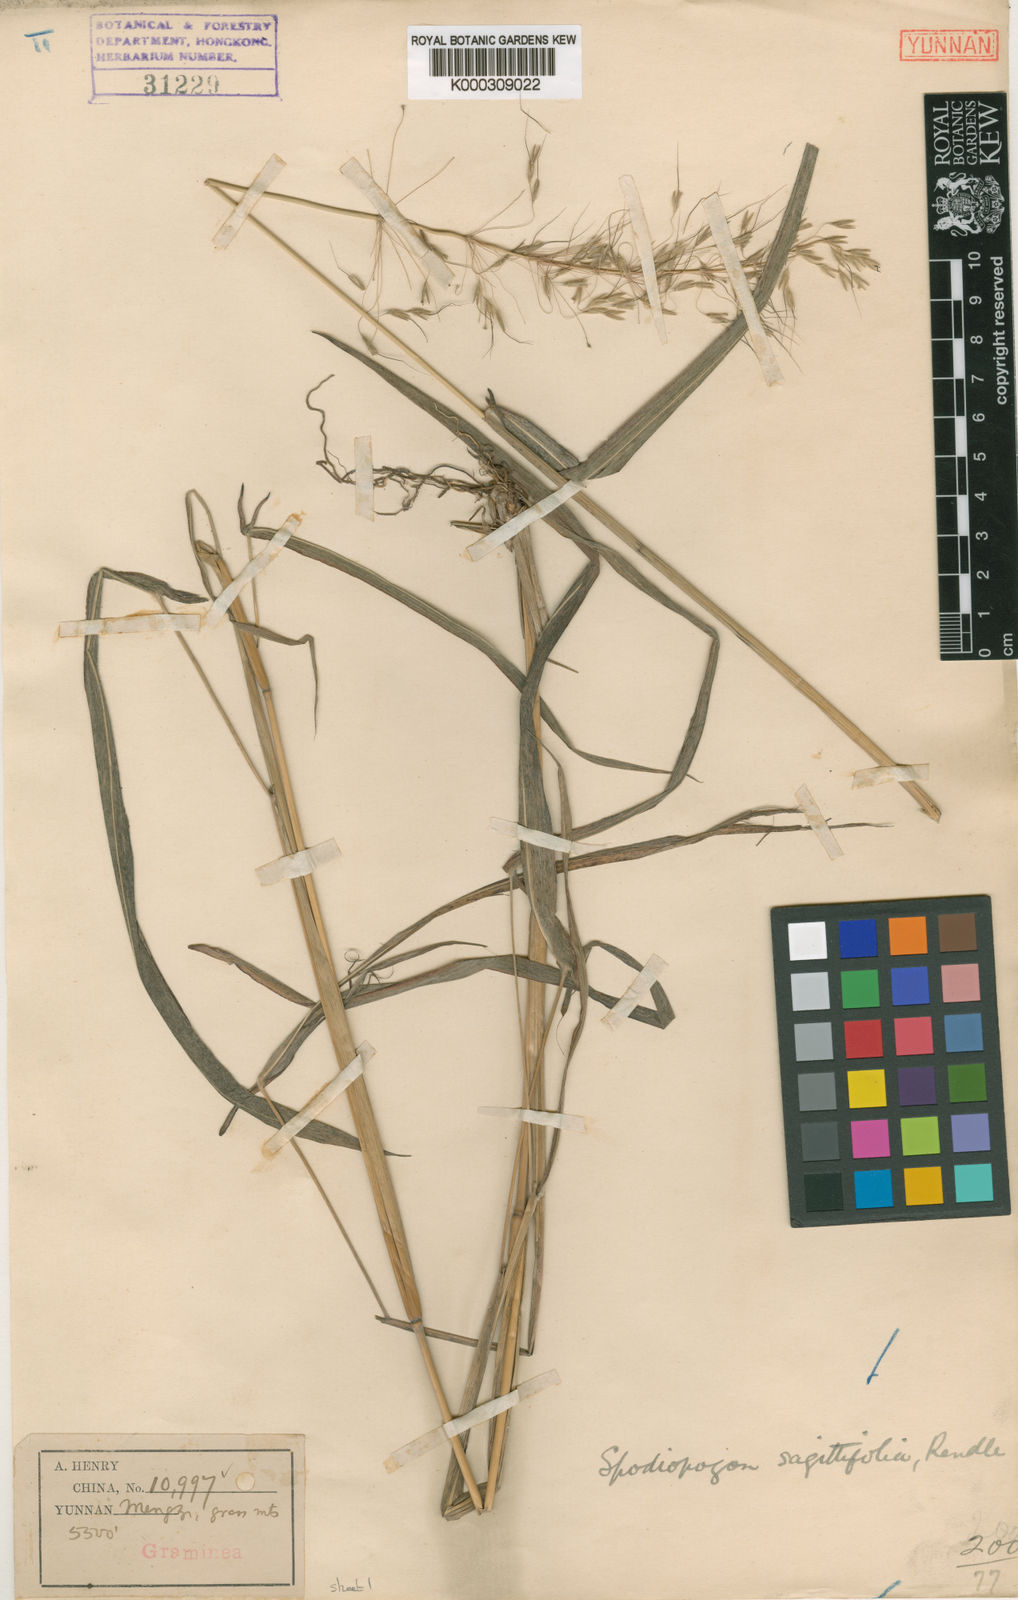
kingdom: Plantae
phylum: Tracheophyta
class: Liliopsida
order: Poales
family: Poaceae
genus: Spodiopogon
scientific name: Spodiopogon sagittifolius
